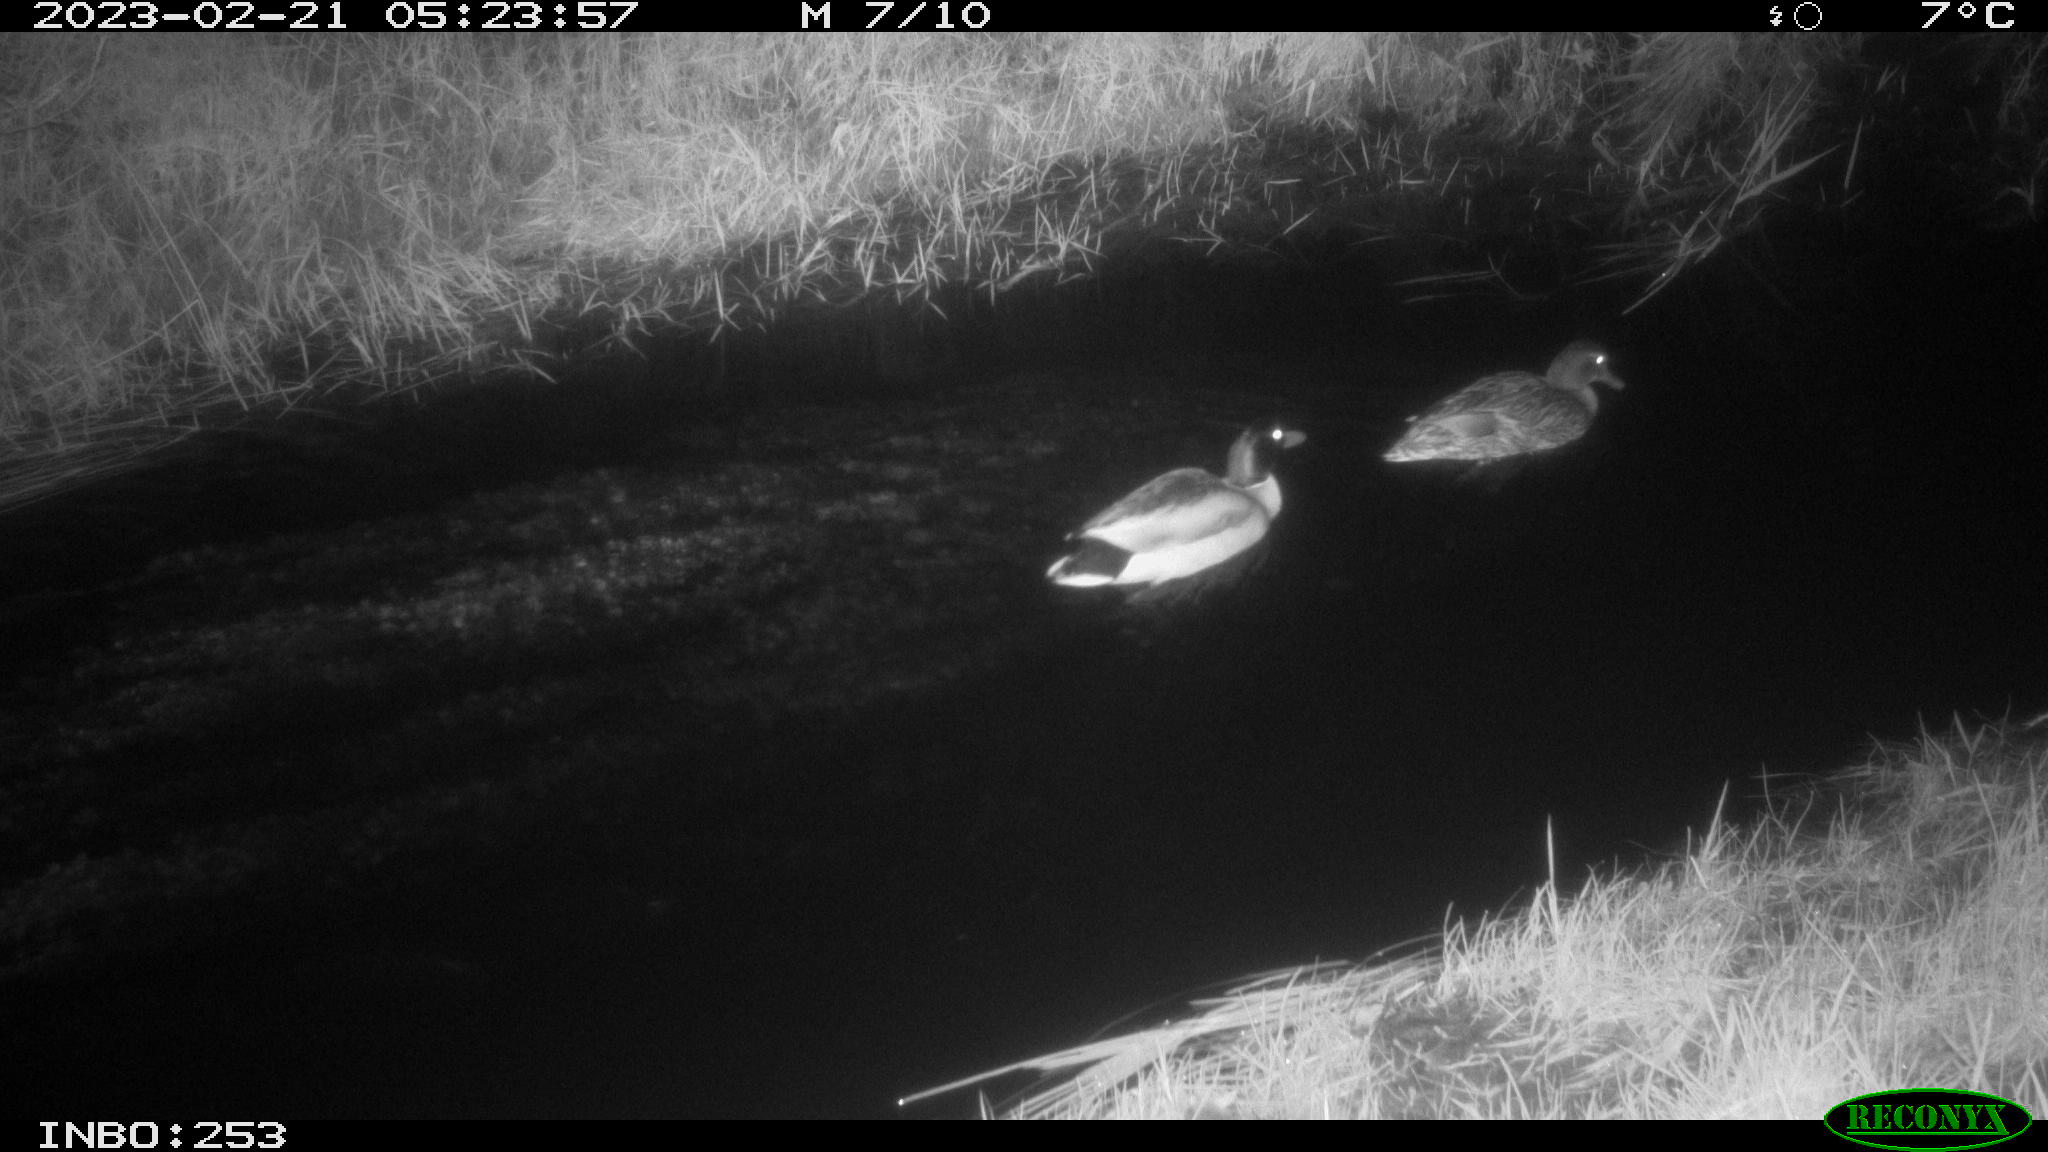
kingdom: Animalia
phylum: Chordata
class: Aves
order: Anseriformes
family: Anatidae
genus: Anas
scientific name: Anas
